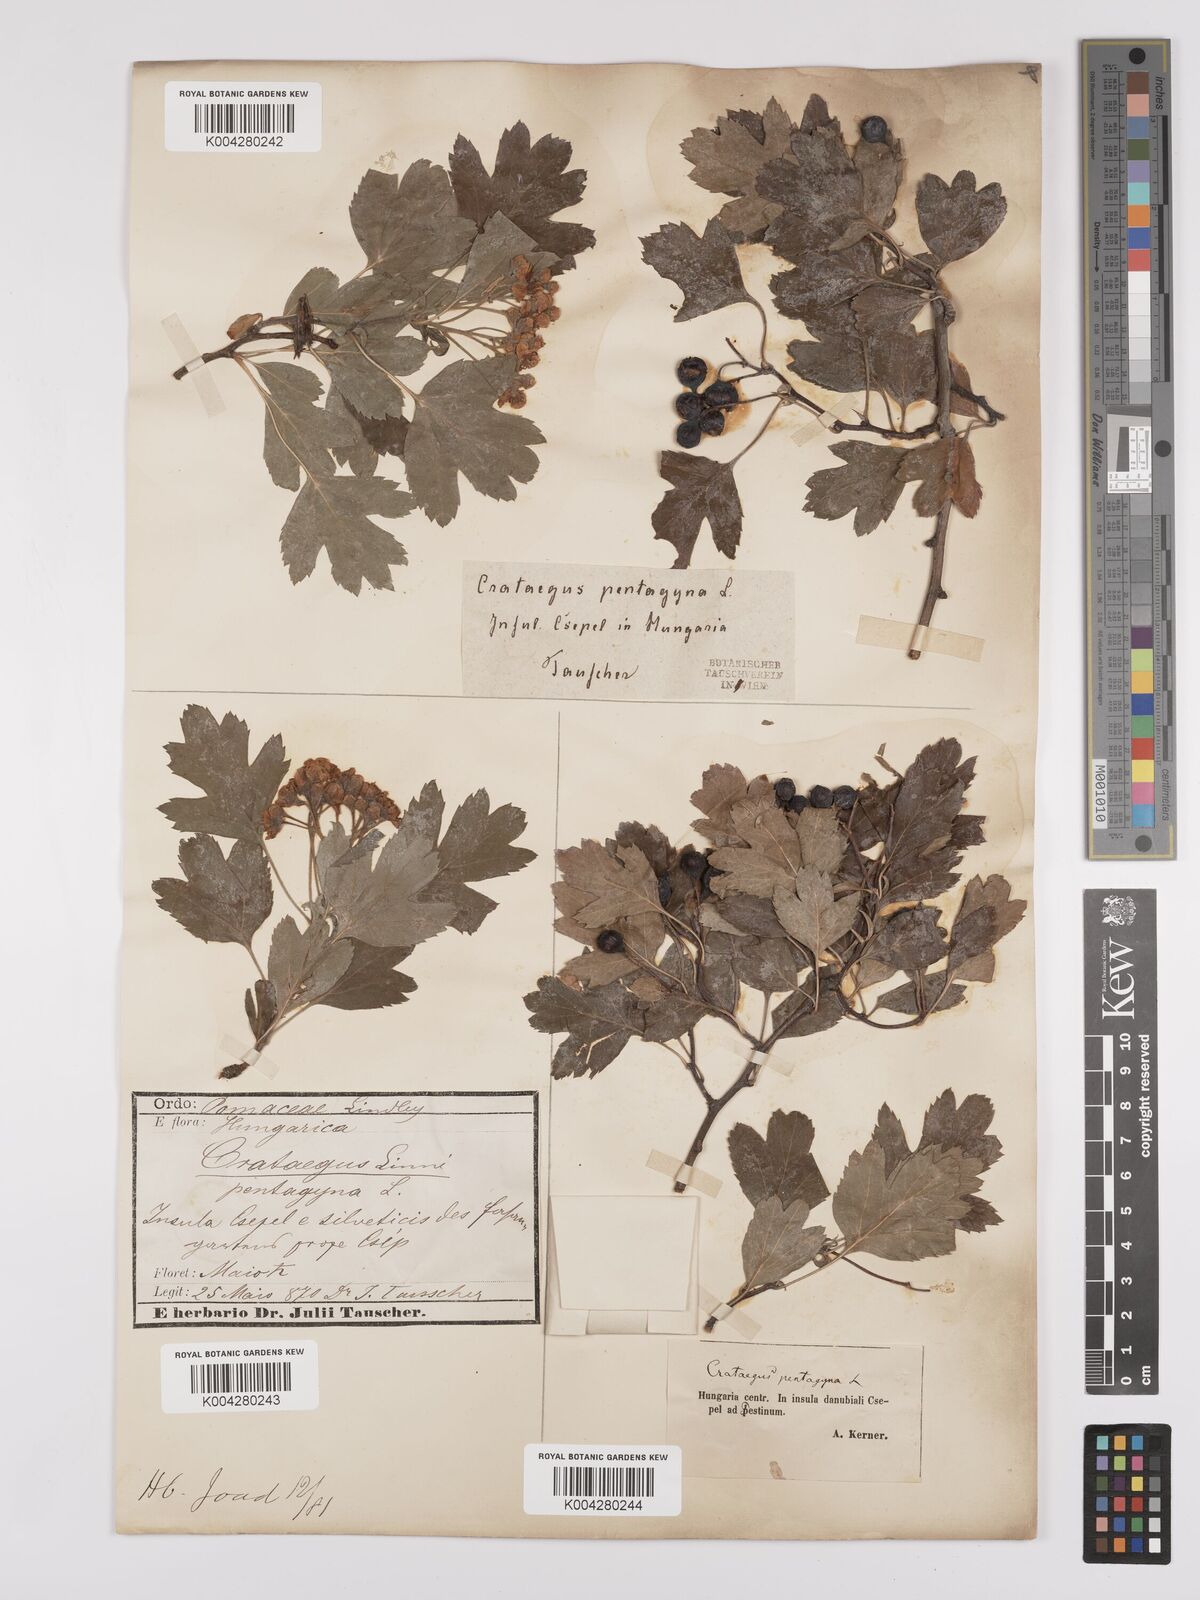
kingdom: Plantae
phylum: Tracheophyta
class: Magnoliopsida
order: Rosales
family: Rosaceae
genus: Crataegus
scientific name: Crataegus pentagyna
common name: Small-flowered black hawthorn
